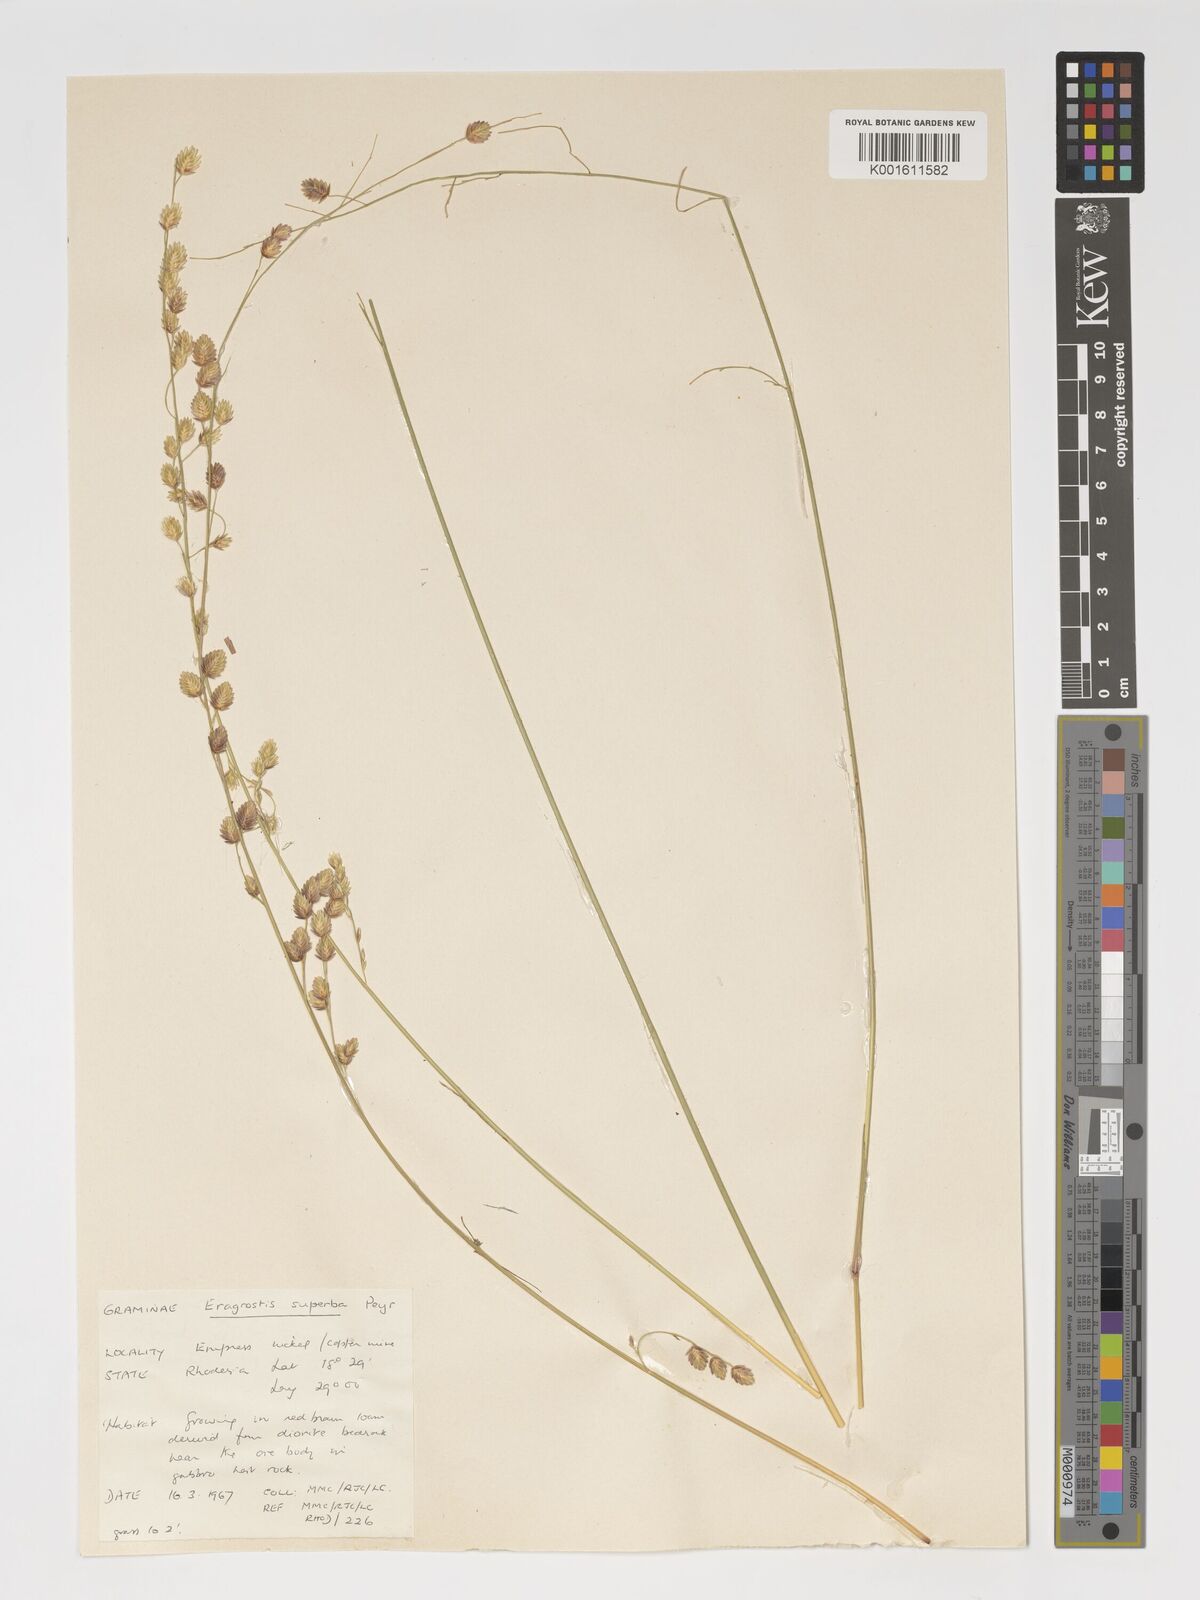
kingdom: Plantae
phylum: Tracheophyta
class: Liliopsida
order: Poales
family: Poaceae
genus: Eragrostis
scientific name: Eragrostis superba
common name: Wilman lovegrass
